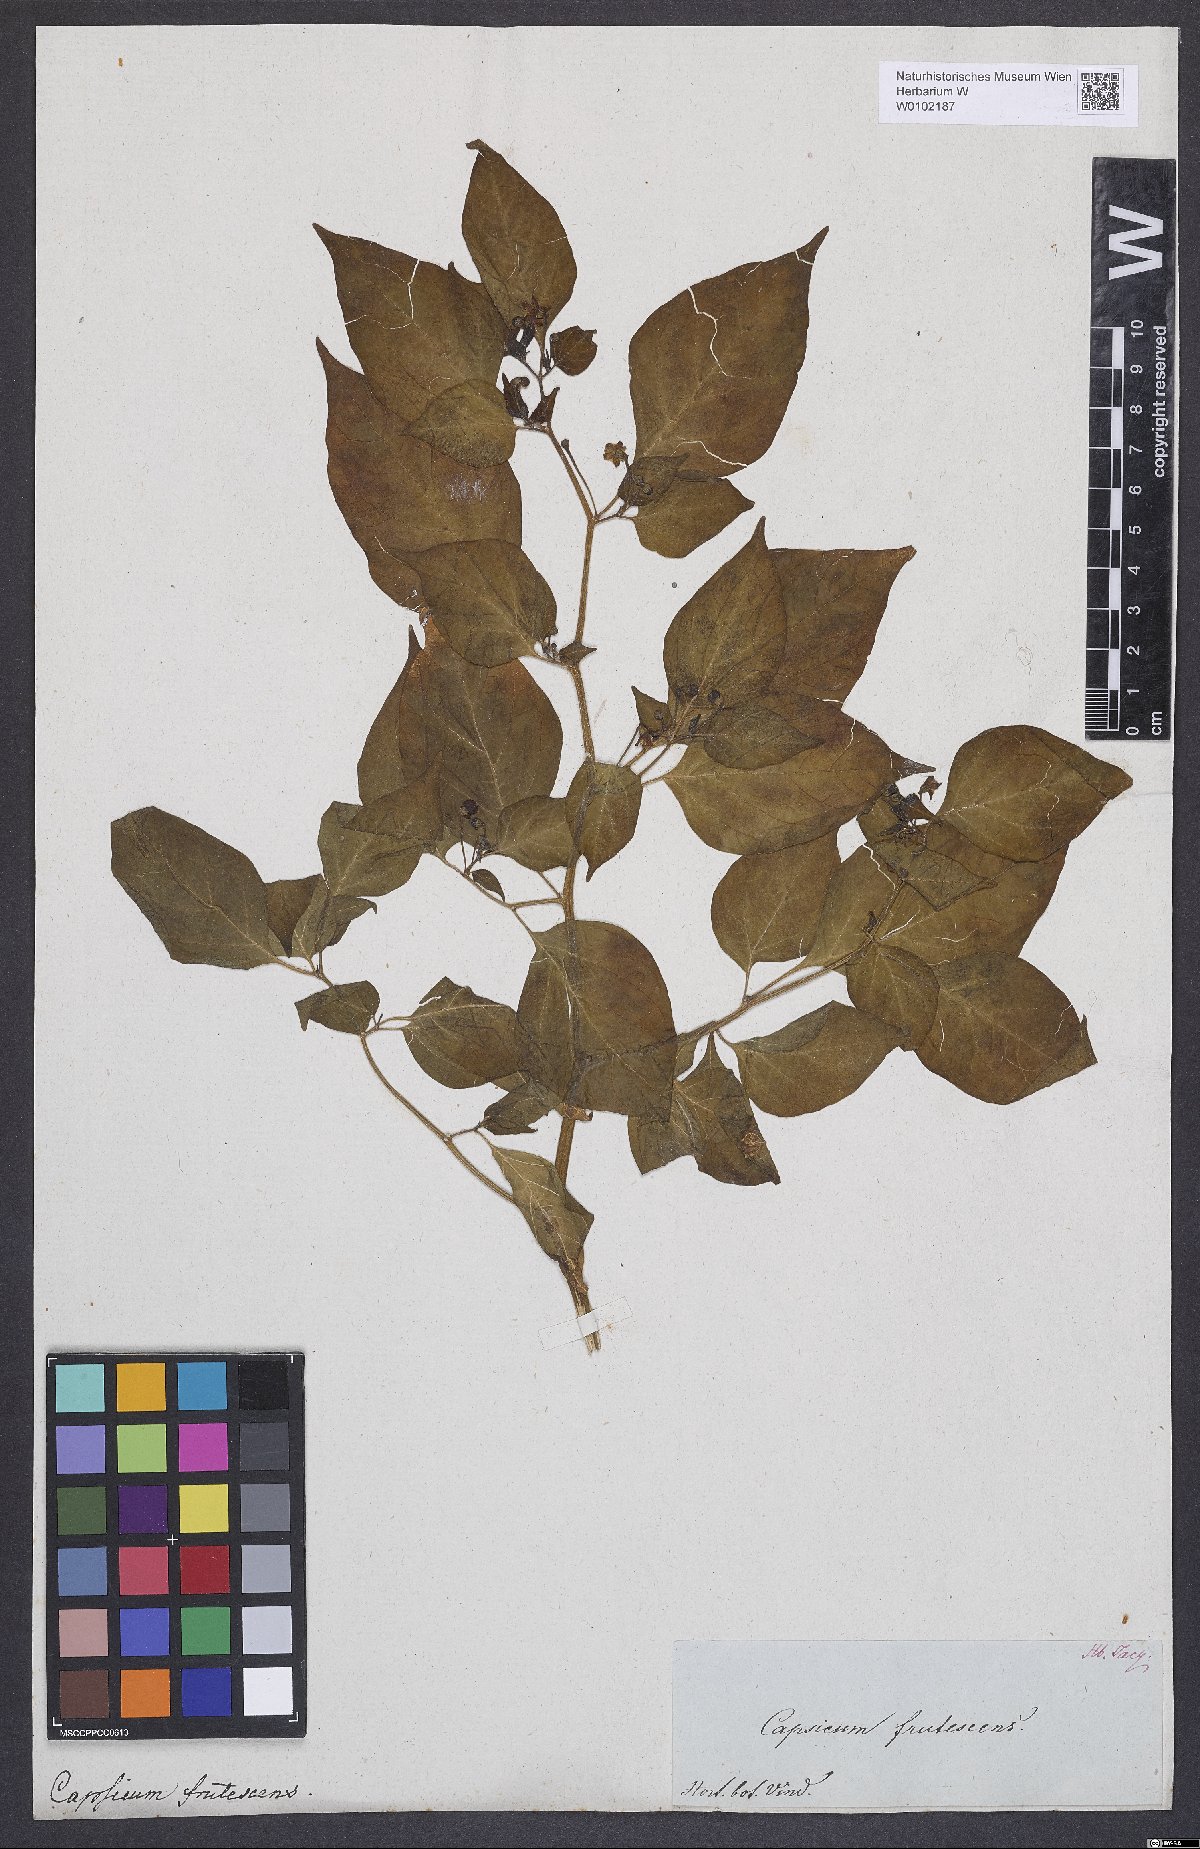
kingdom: Plantae
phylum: Tracheophyta
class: Magnoliopsida
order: Solanales
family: Solanaceae
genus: Capsicum
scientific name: Capsicum frutescens
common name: Bird pepper
